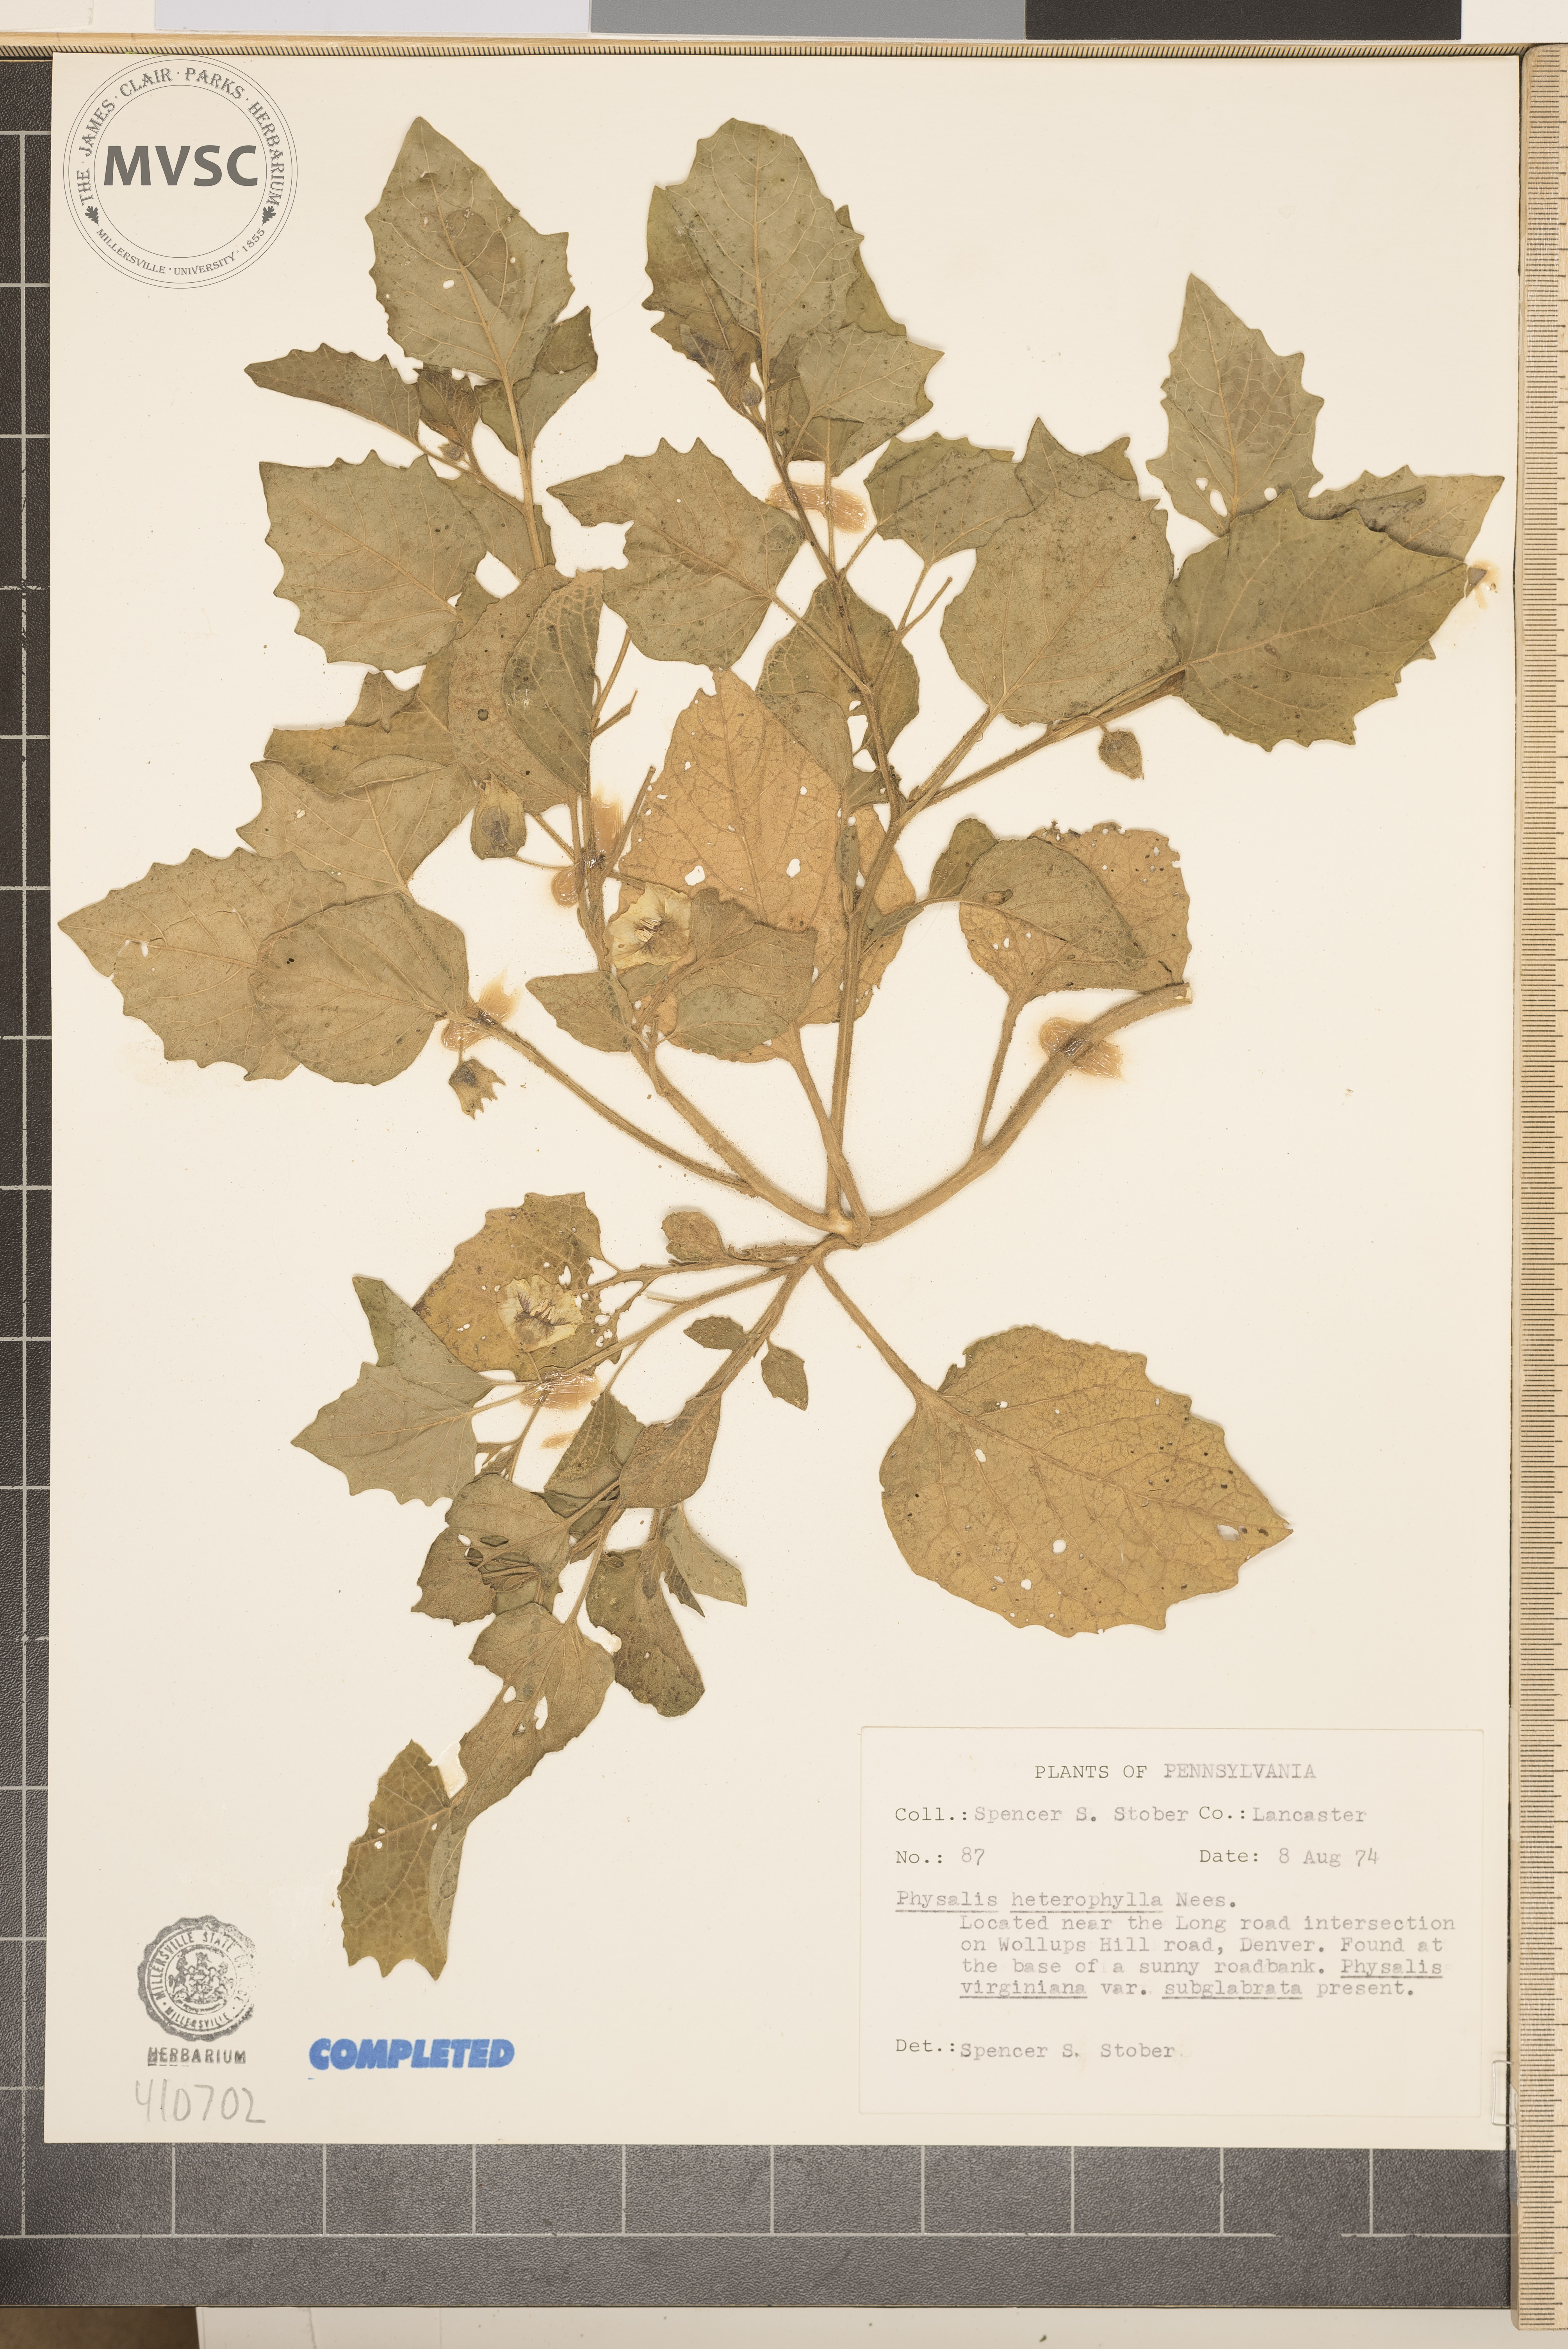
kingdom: Plantae
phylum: Tracheophyta
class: Magnoliopsida
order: Solanales
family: Solanaceae
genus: Physalis
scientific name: Physalis heterophylla
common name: Clammy ground-cherry
